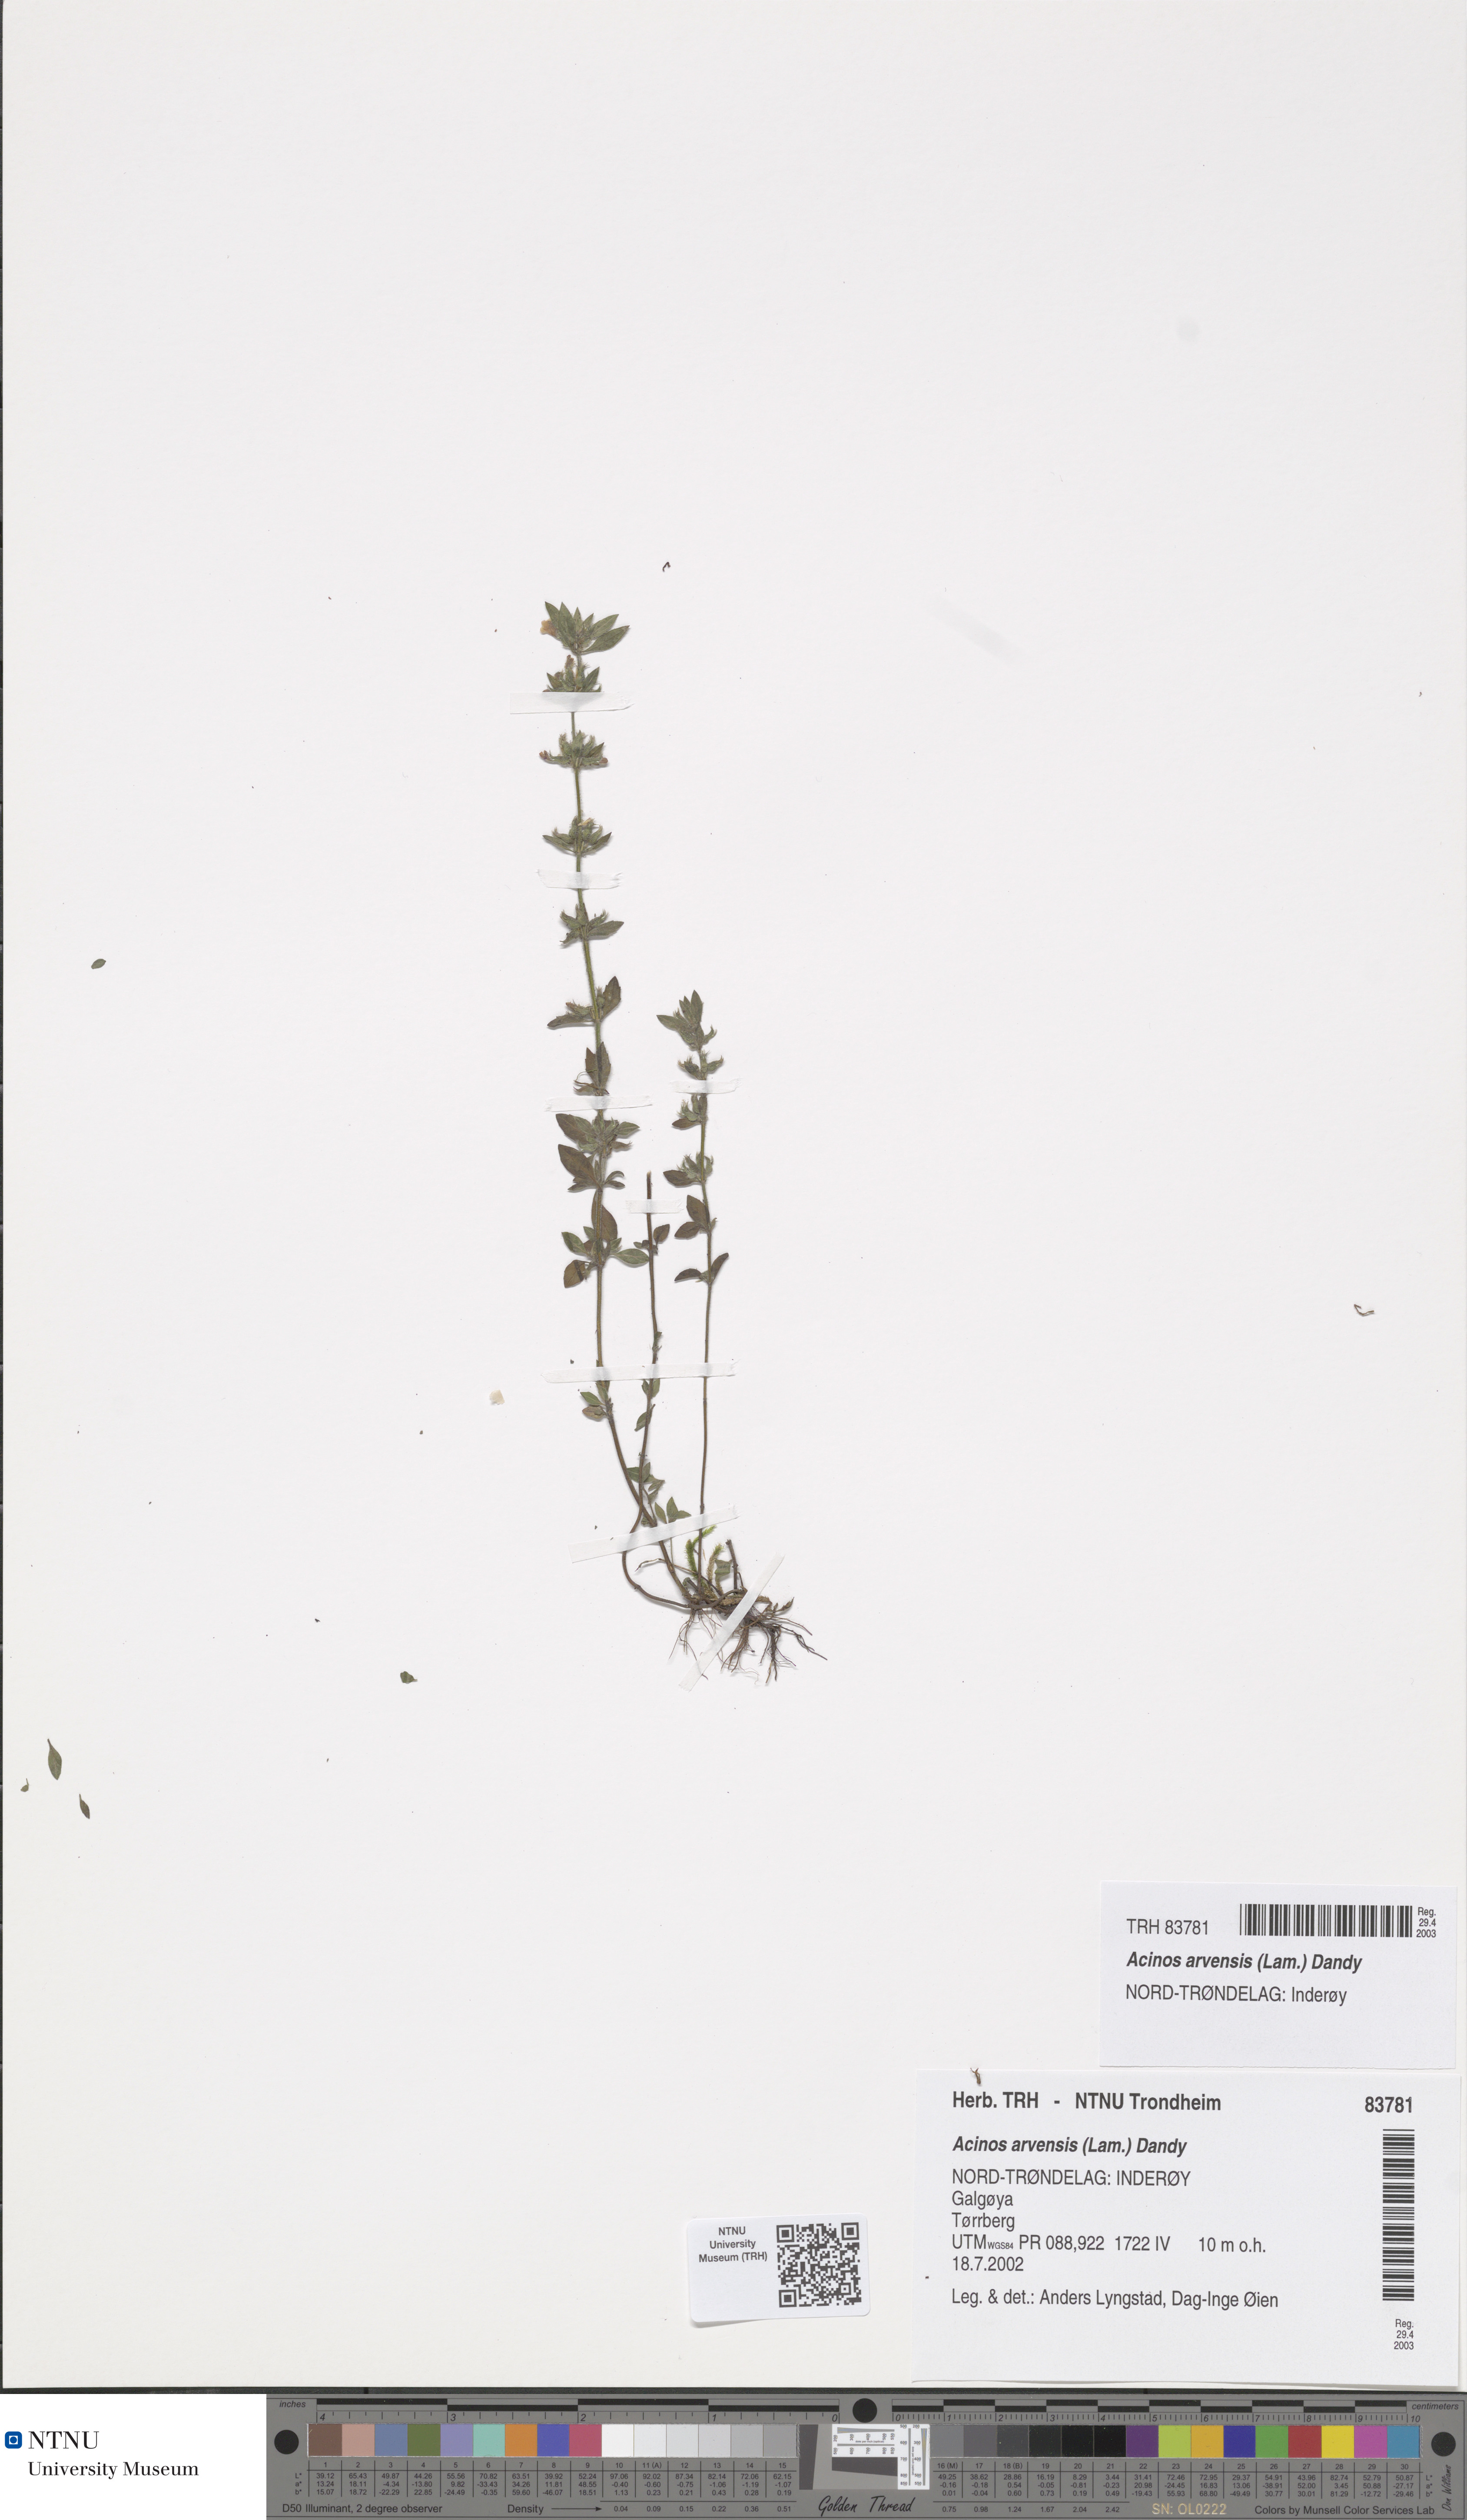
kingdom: Plantae
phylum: Tracheophyta
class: Magnoliopsida
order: Lamiales
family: Lamiaceae
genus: Clinopodium
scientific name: Clinopodium acinos
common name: Basil thyme
